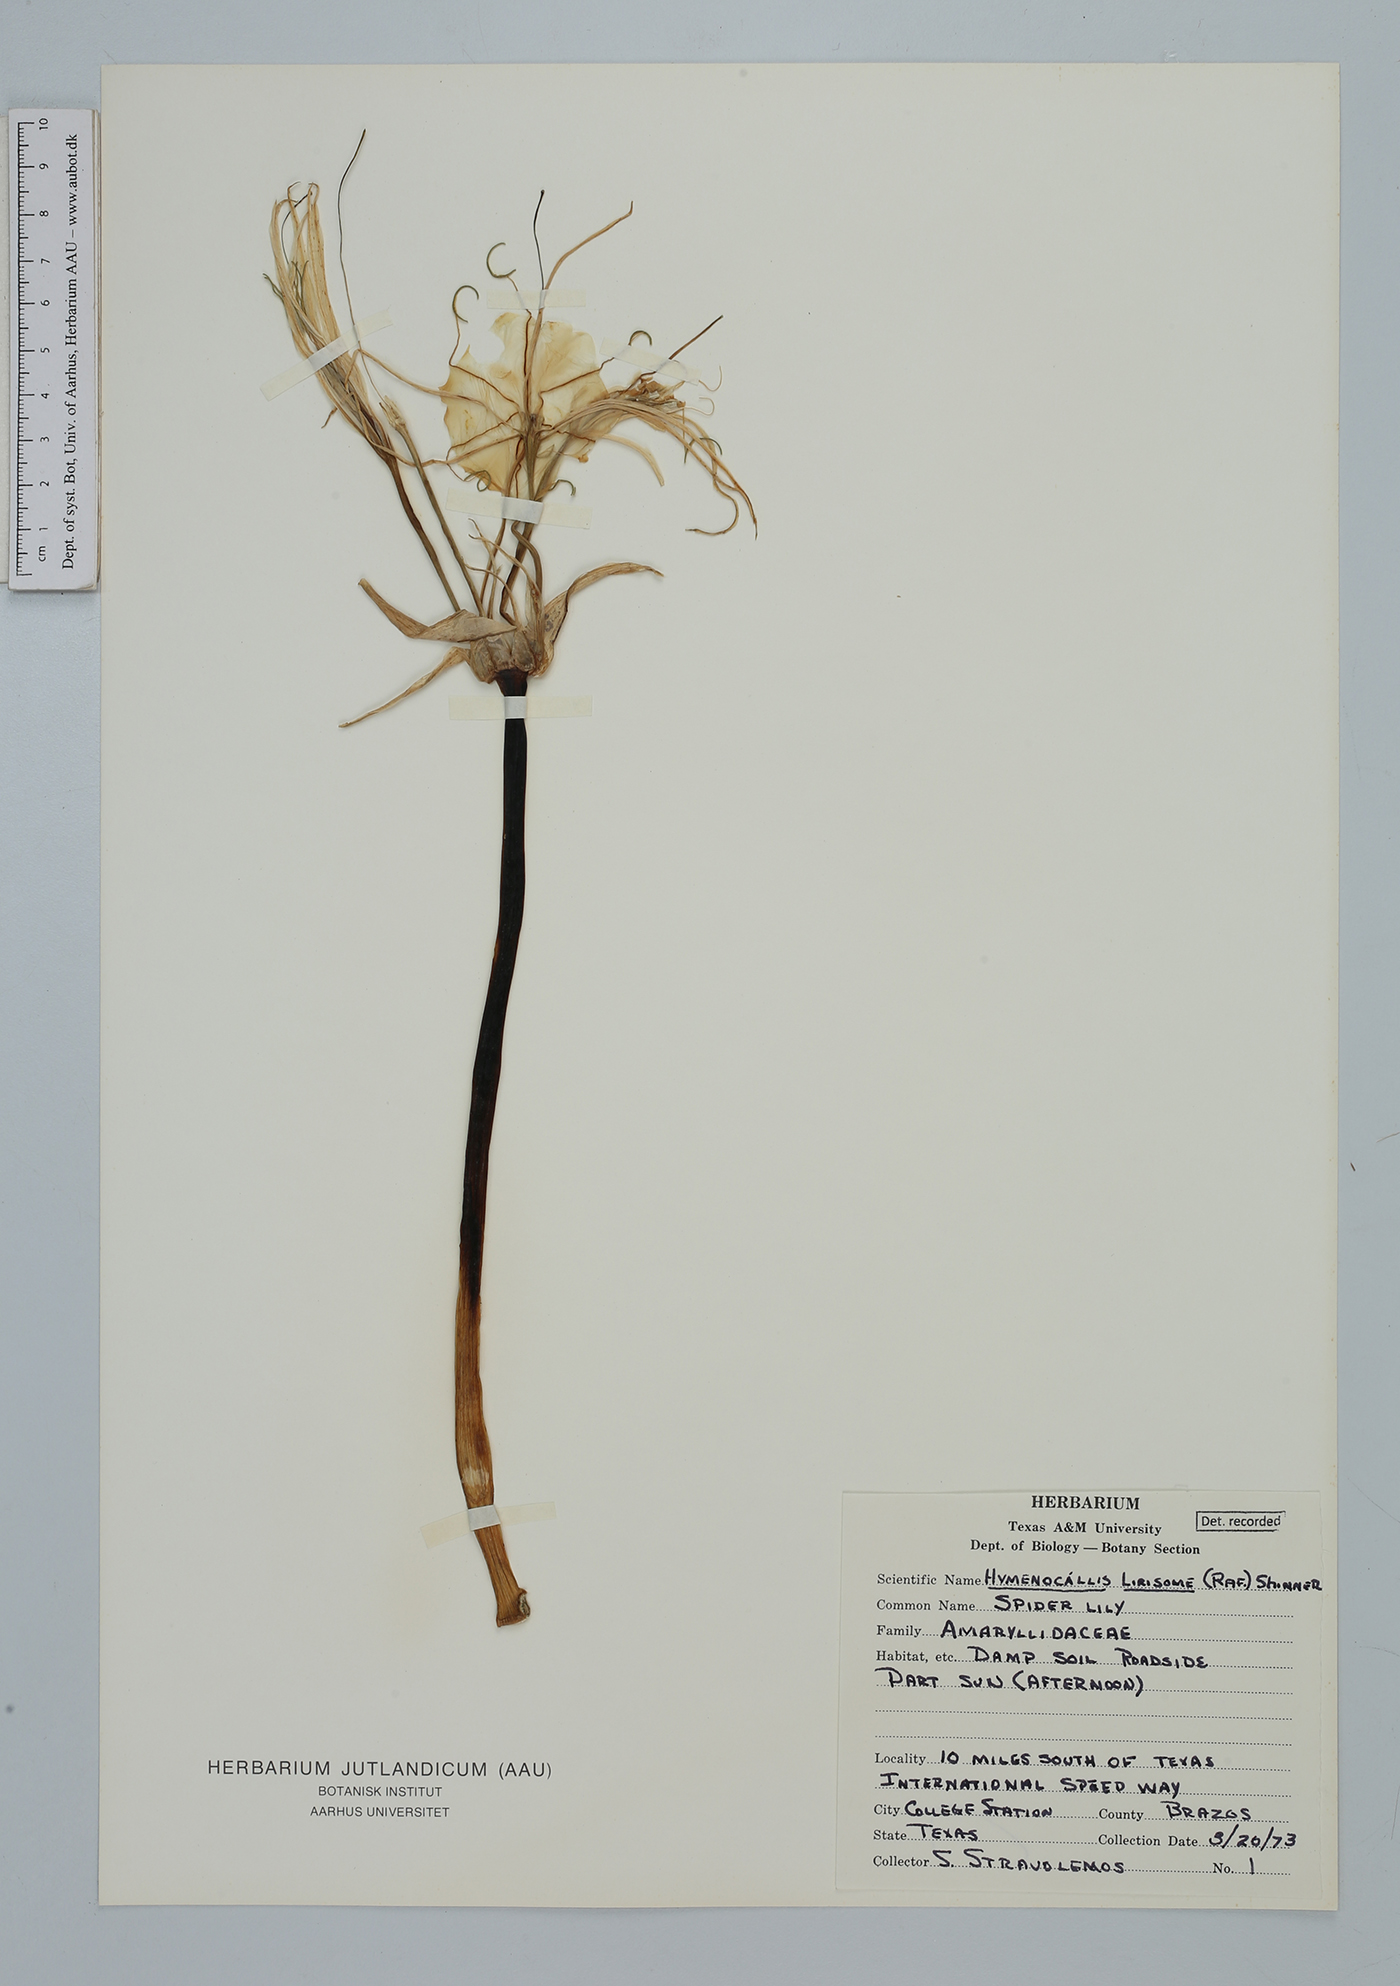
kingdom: Plantae
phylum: Tracheophyta
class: Liliopsida
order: Asparagales
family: Amaryllidaceae
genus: Hymenocallis
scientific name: Hymenocallis liriosme
